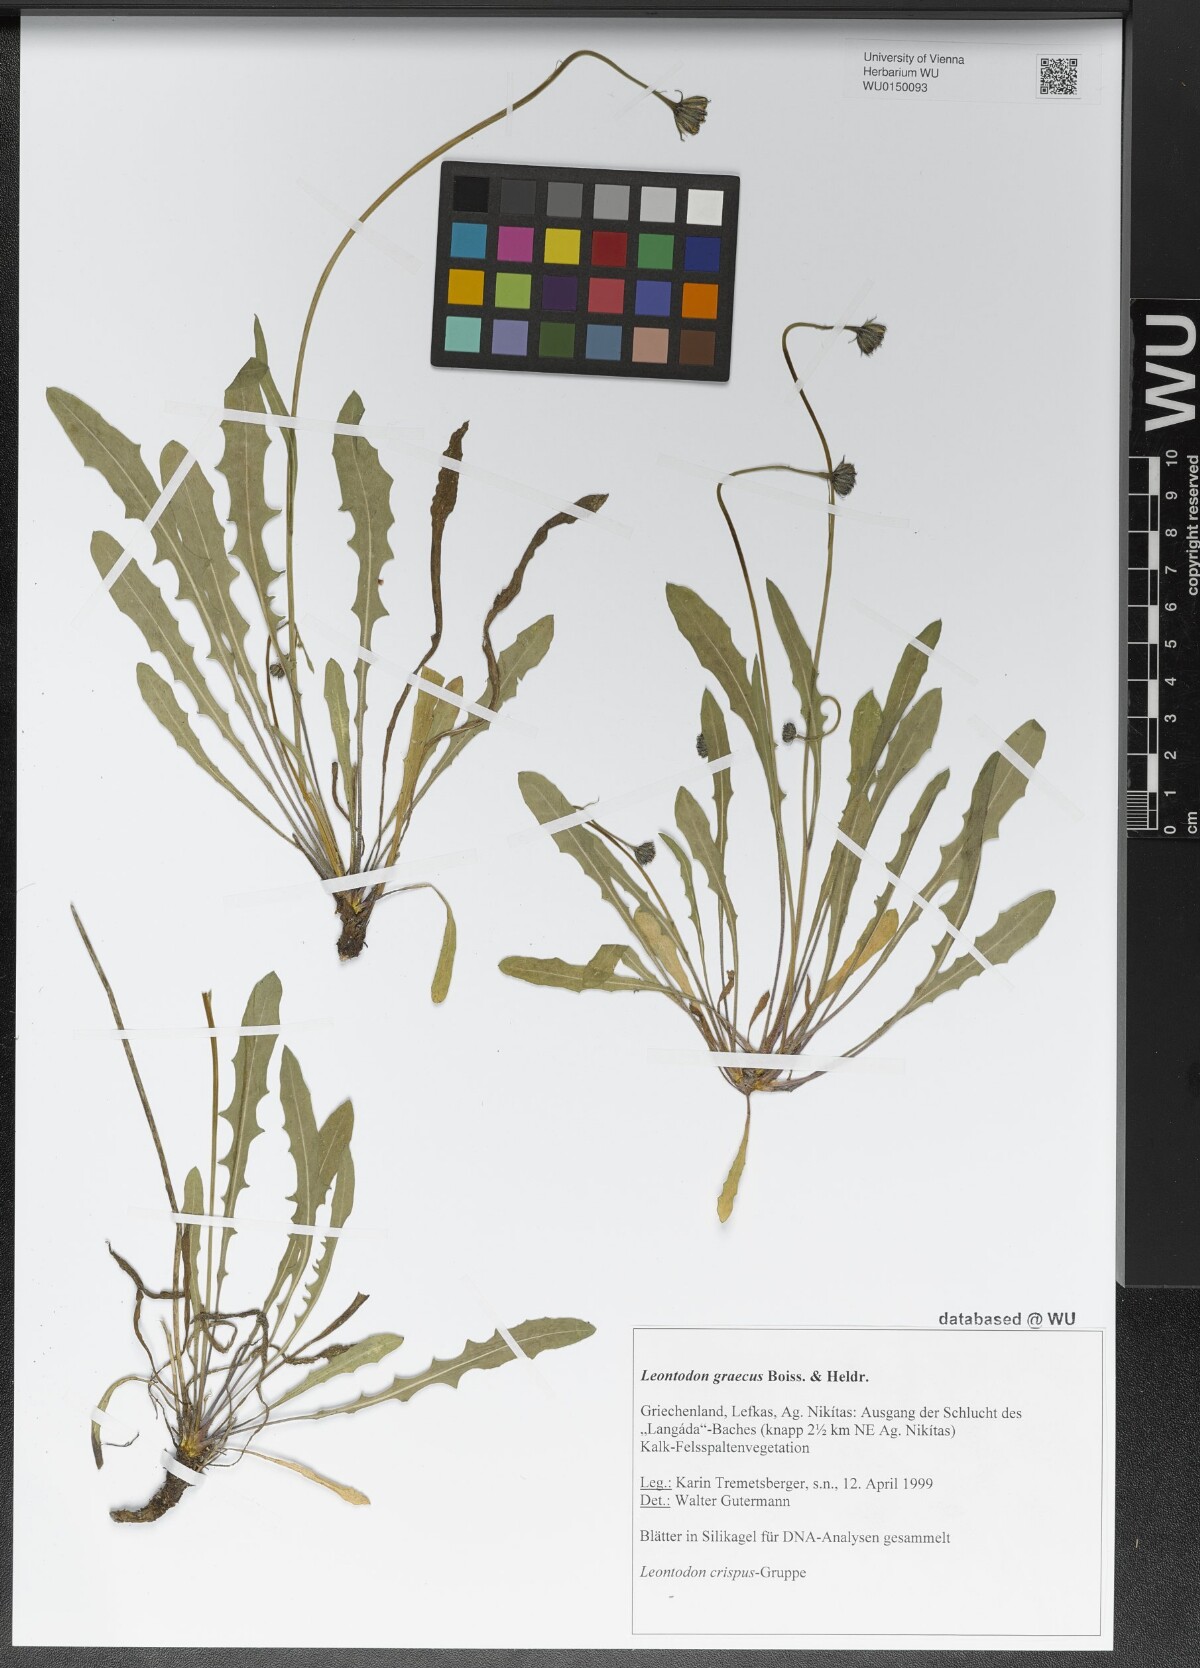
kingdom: Plantae
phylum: Tracheophyta
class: Magnoliopsida
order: Asterales
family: Asteraceae
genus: Leontodon
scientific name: Leontodon graecus
